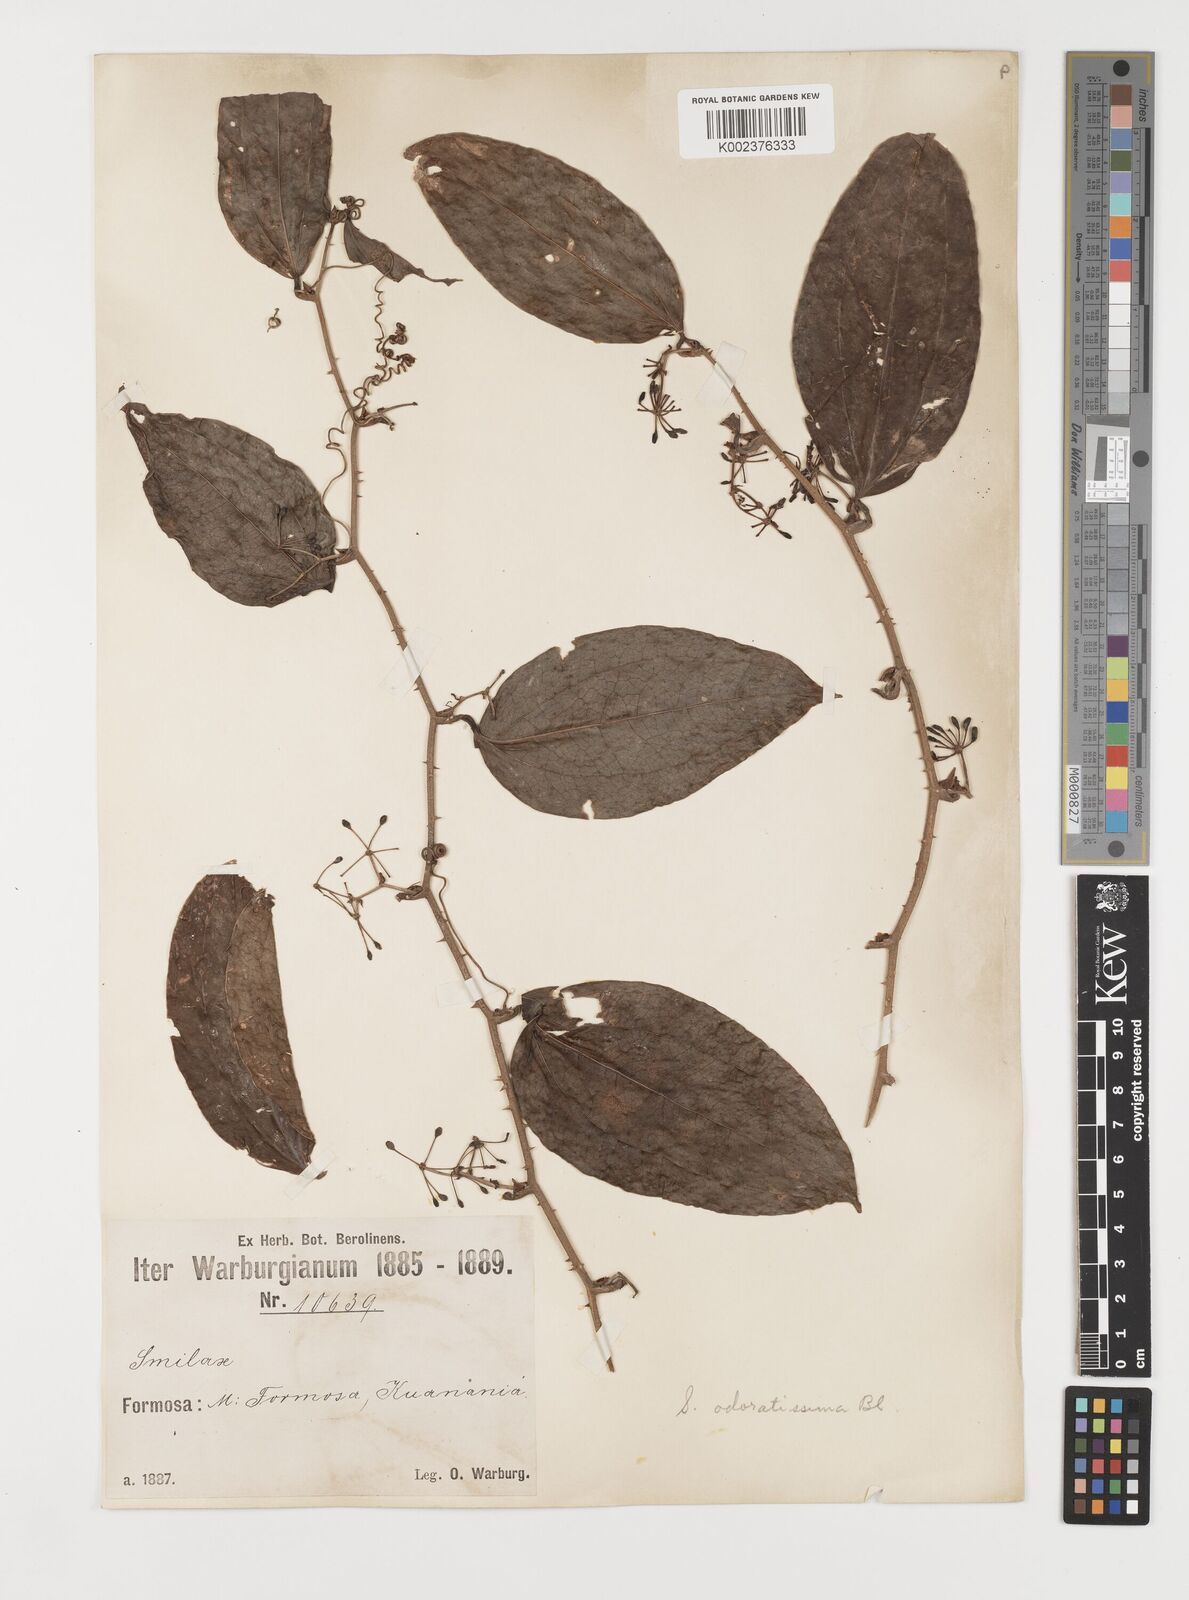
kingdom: Plantae
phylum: Tracheophyta
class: Liliopsida
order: Liliales
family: Smilacaceae
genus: Smilax
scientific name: Smilax odoratissima
